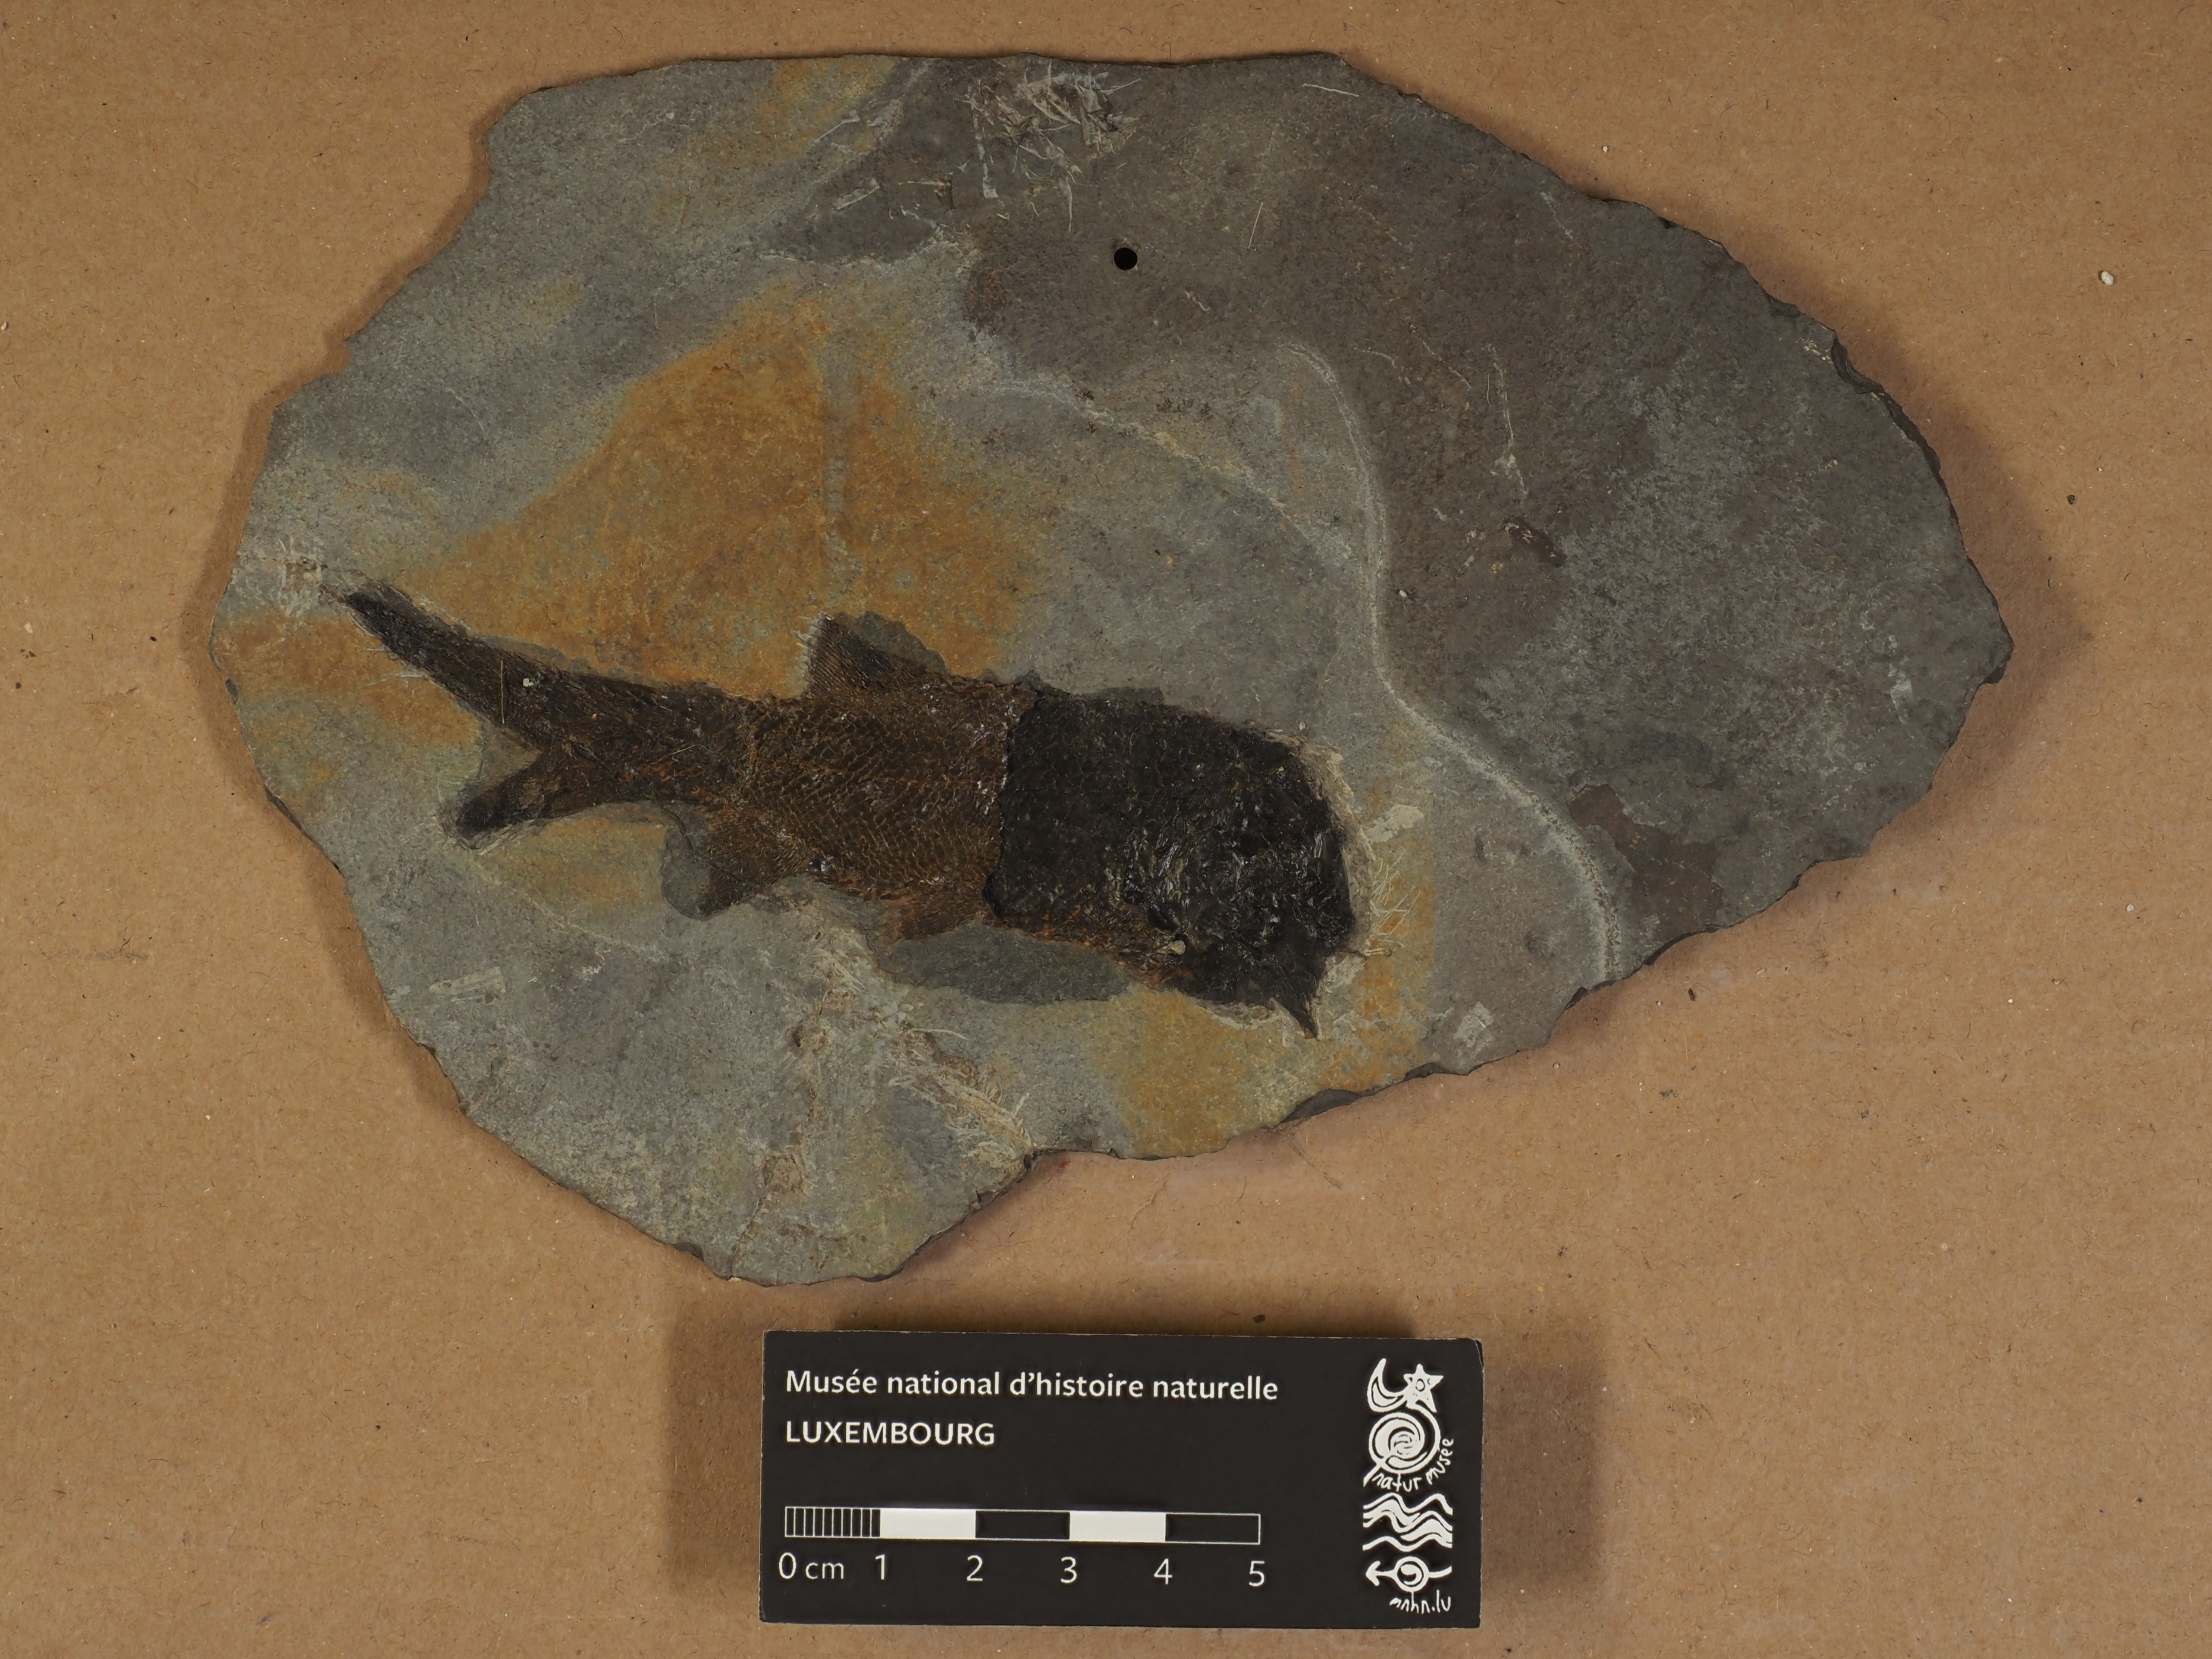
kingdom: Animalia
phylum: Chordata
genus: Paramblypterus
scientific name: Paramblypterus
